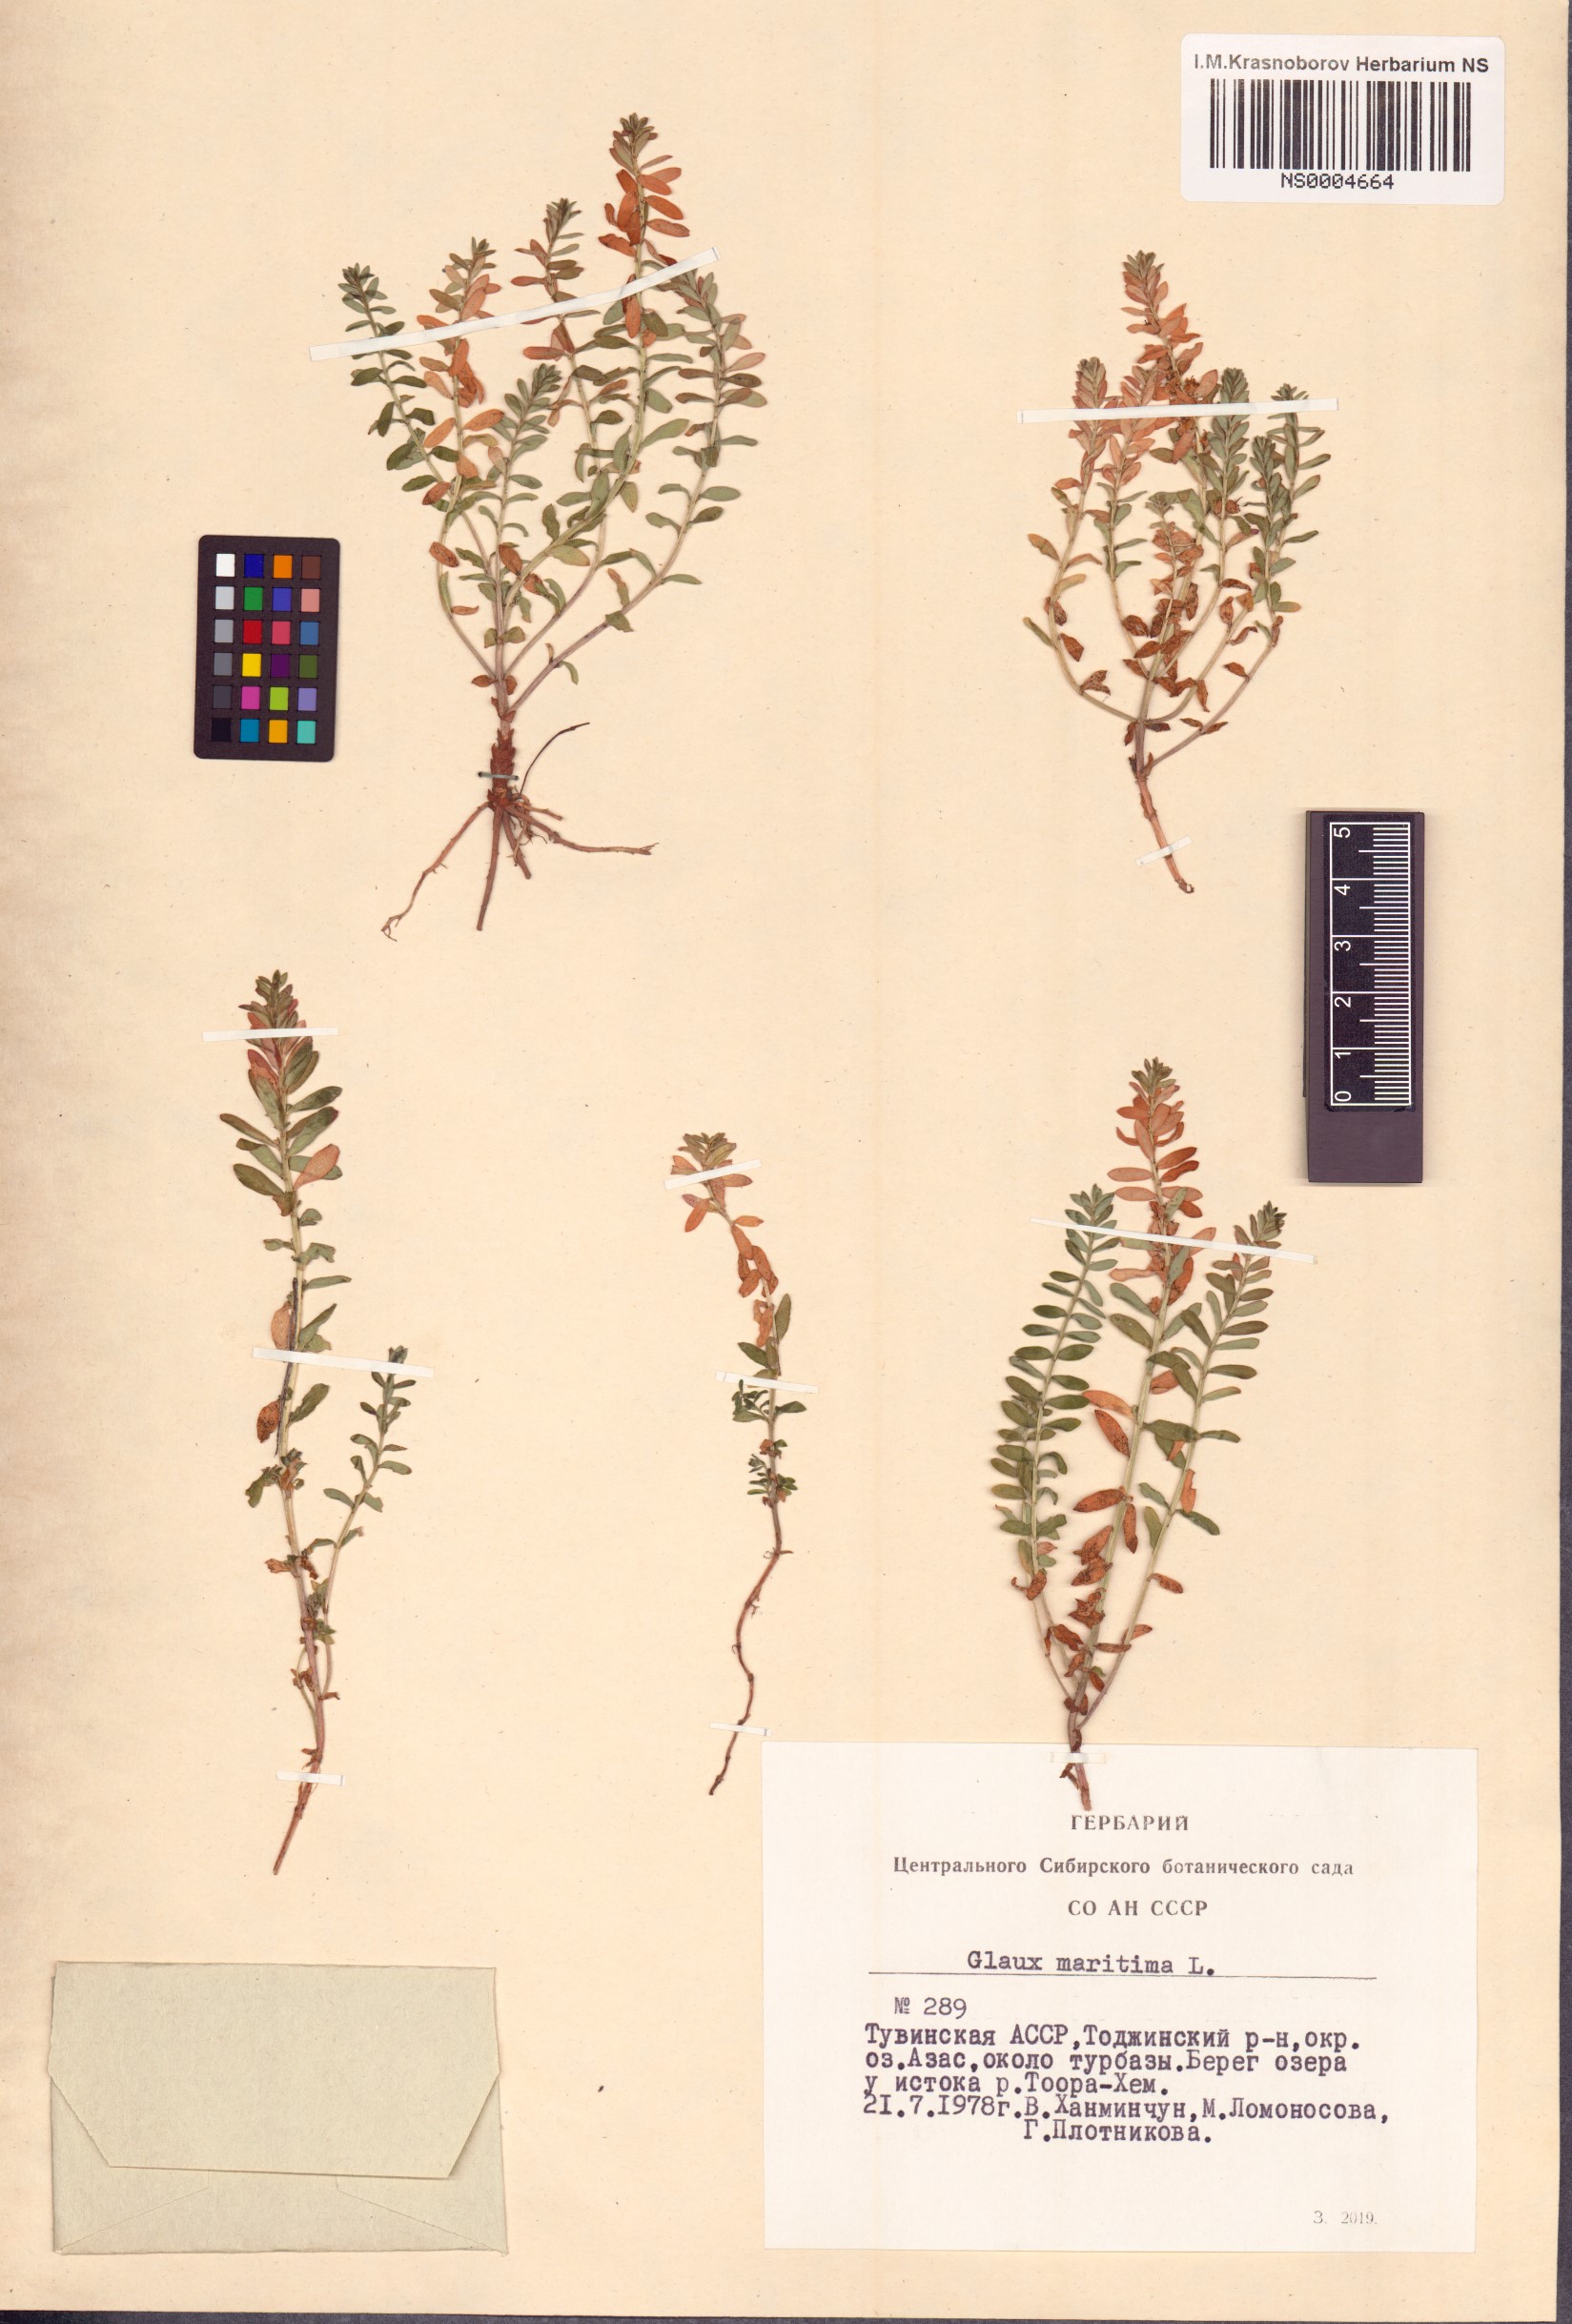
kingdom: Plantae
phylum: Tracheophyta
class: Magnoliopsida
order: Ericales
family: Primulaceae
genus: Lysimachia
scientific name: Lysimachia maritima
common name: Sea milkwort
